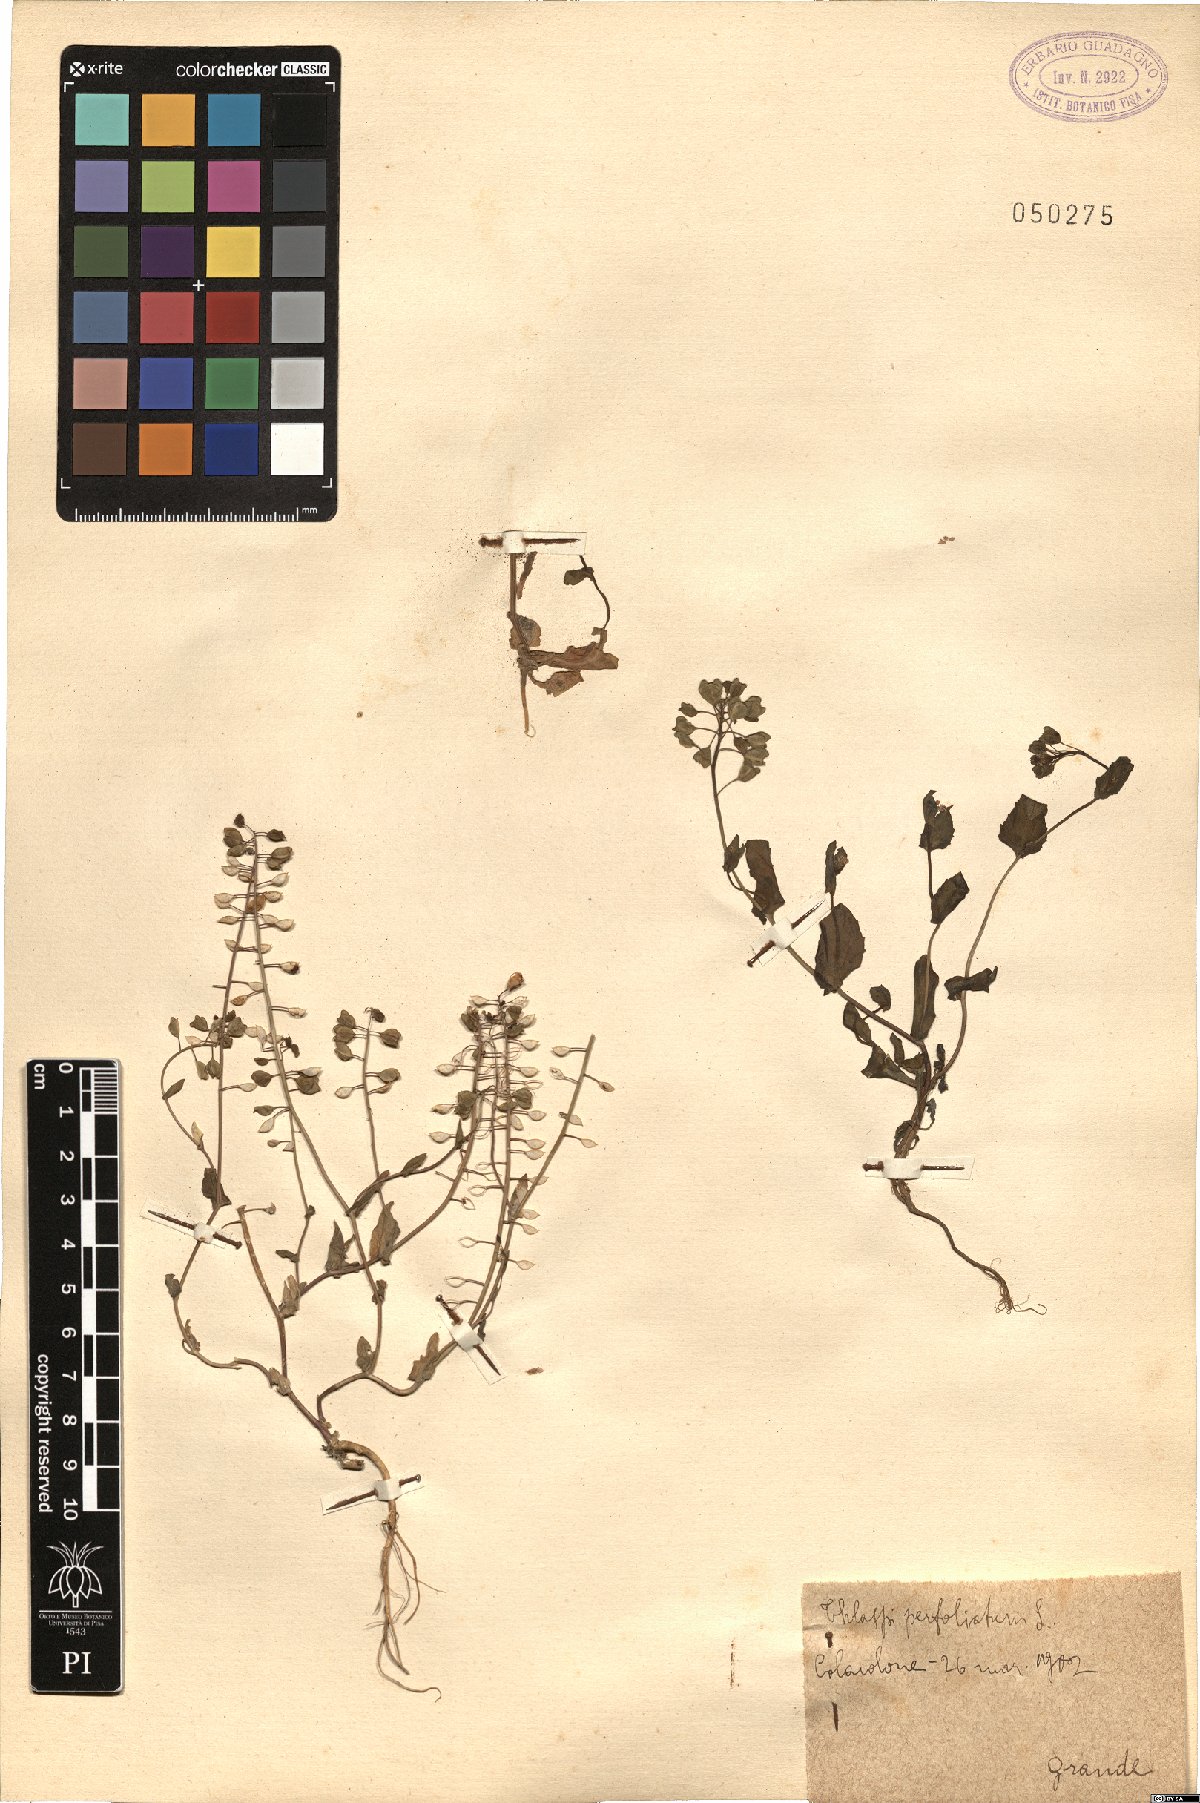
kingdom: Plantae
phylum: Tracheophyta
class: Magnoliopsida
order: Brassicales
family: Brassicaceae
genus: Noccaea
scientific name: Noccaea perfoliata
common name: Perfoliate pennycress
